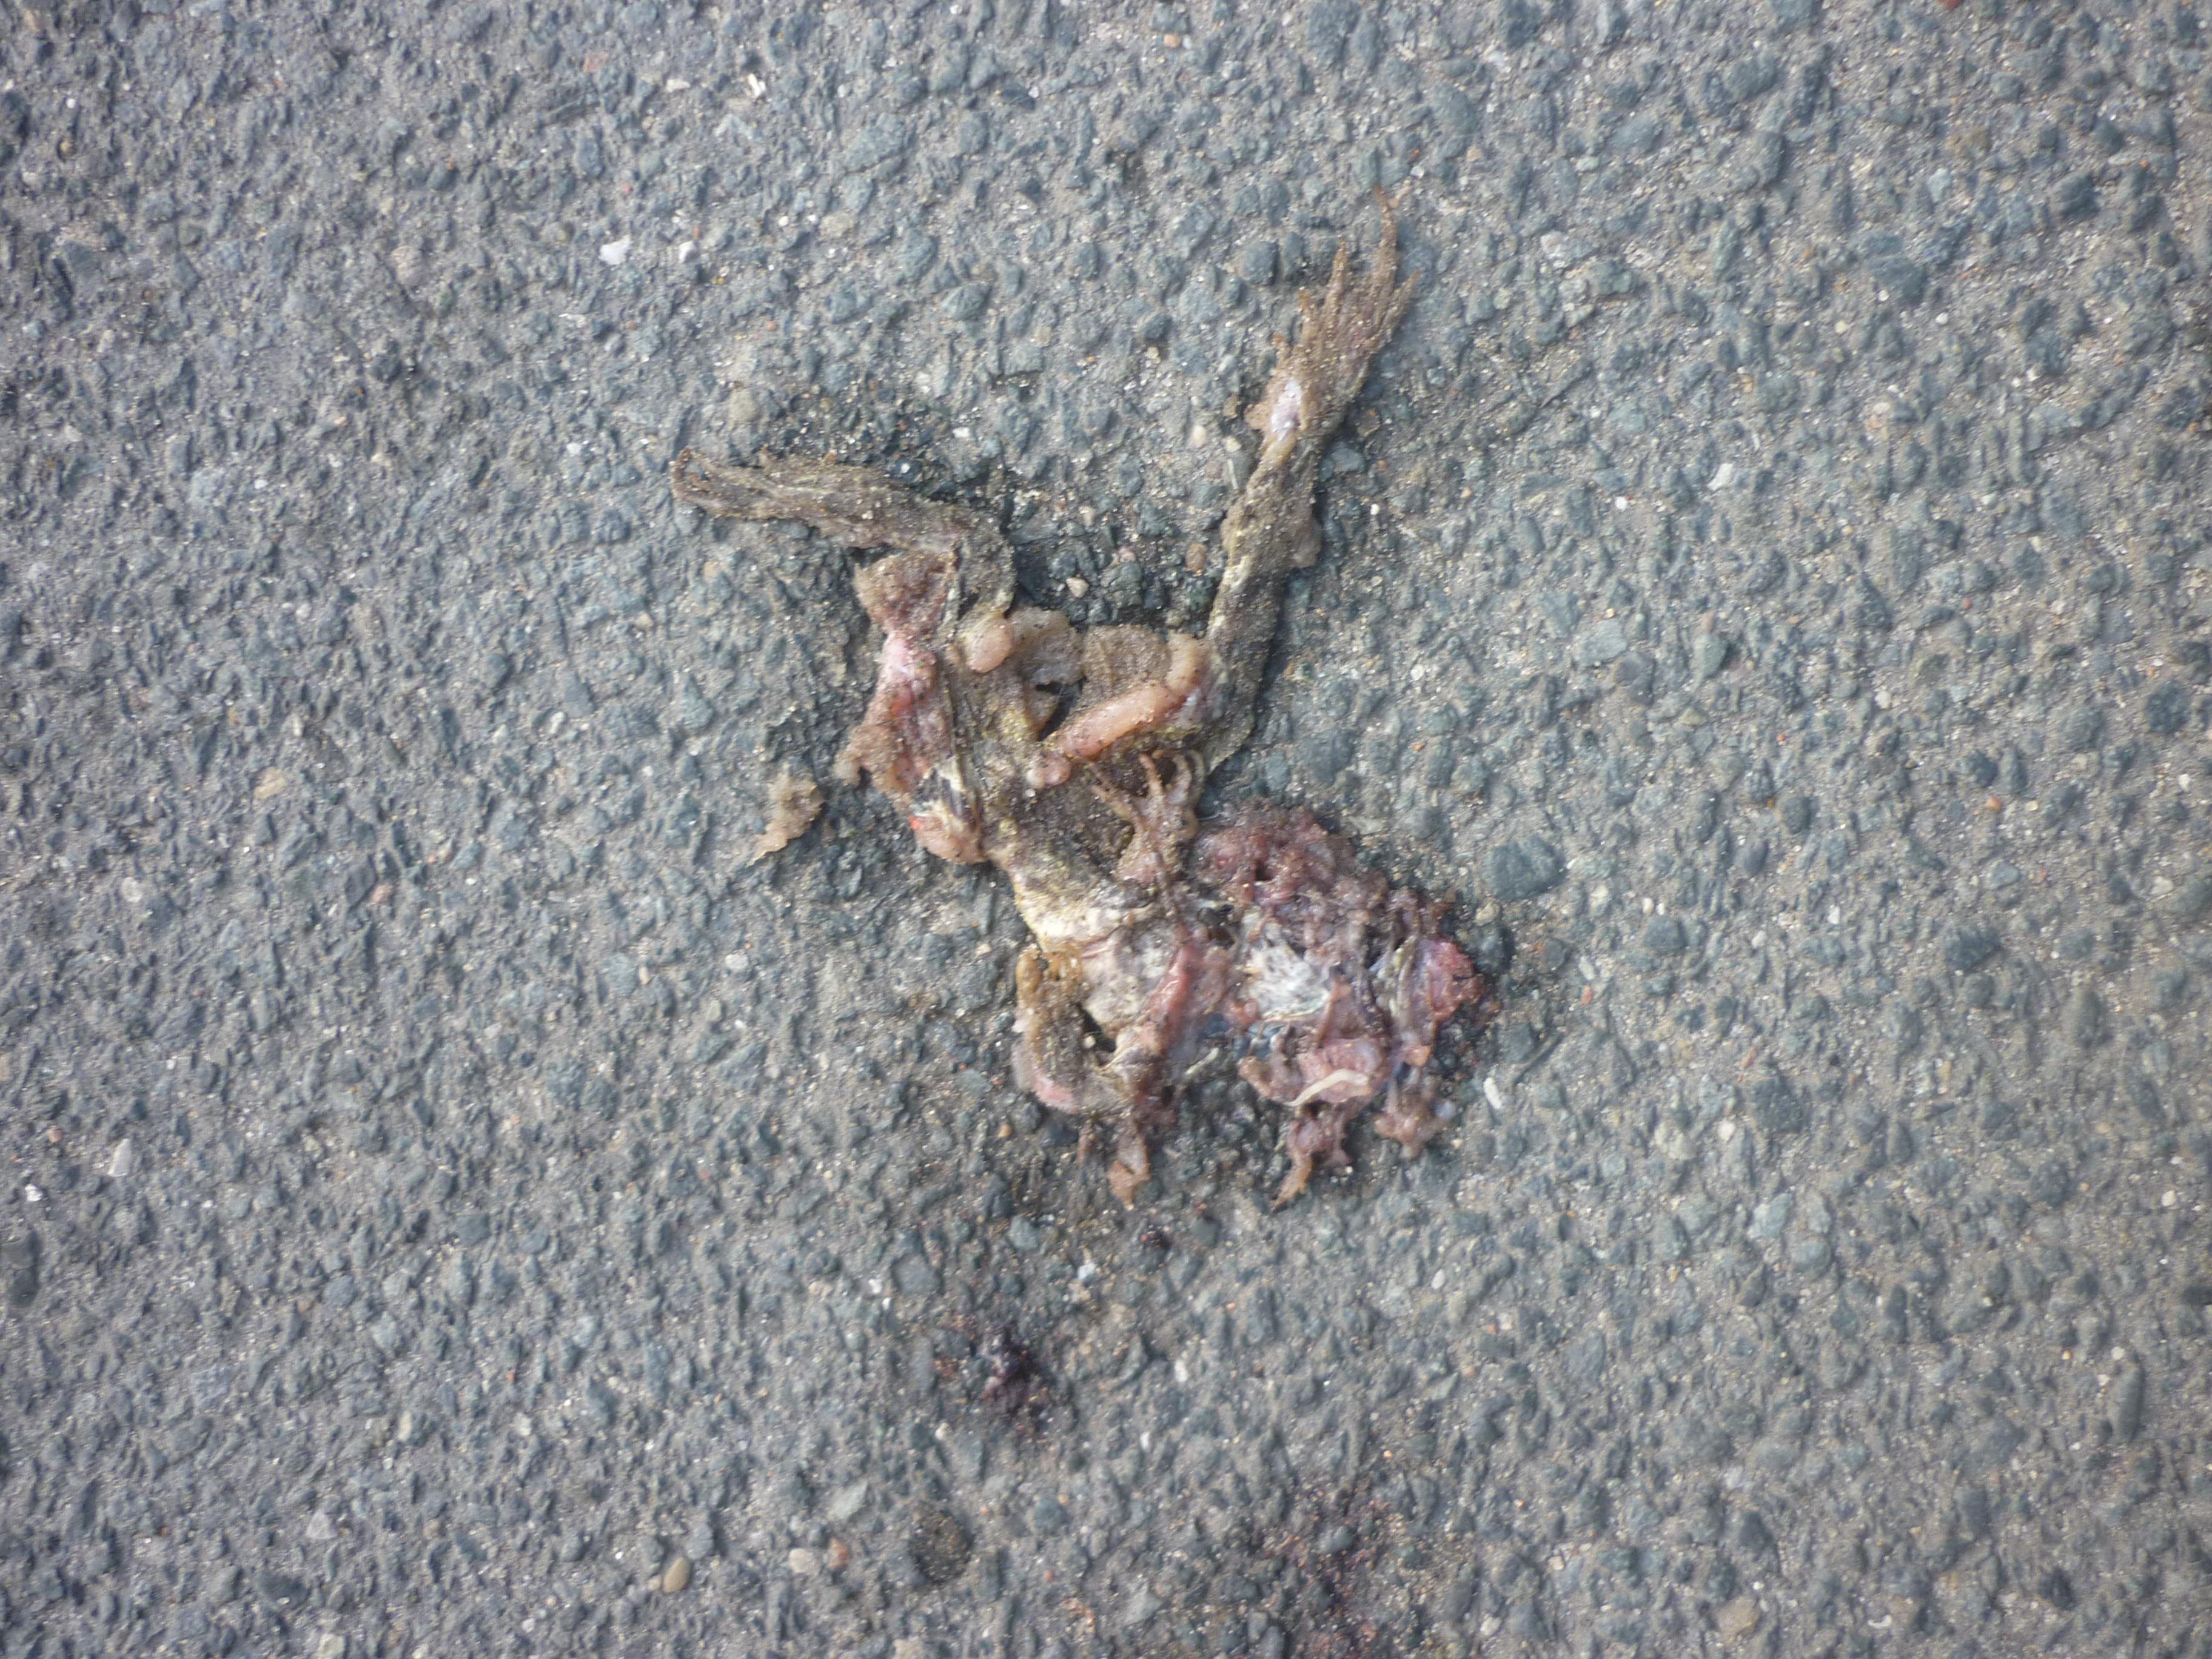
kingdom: Animalia
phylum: Chordata
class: Amphibia
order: Anura
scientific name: Anura
